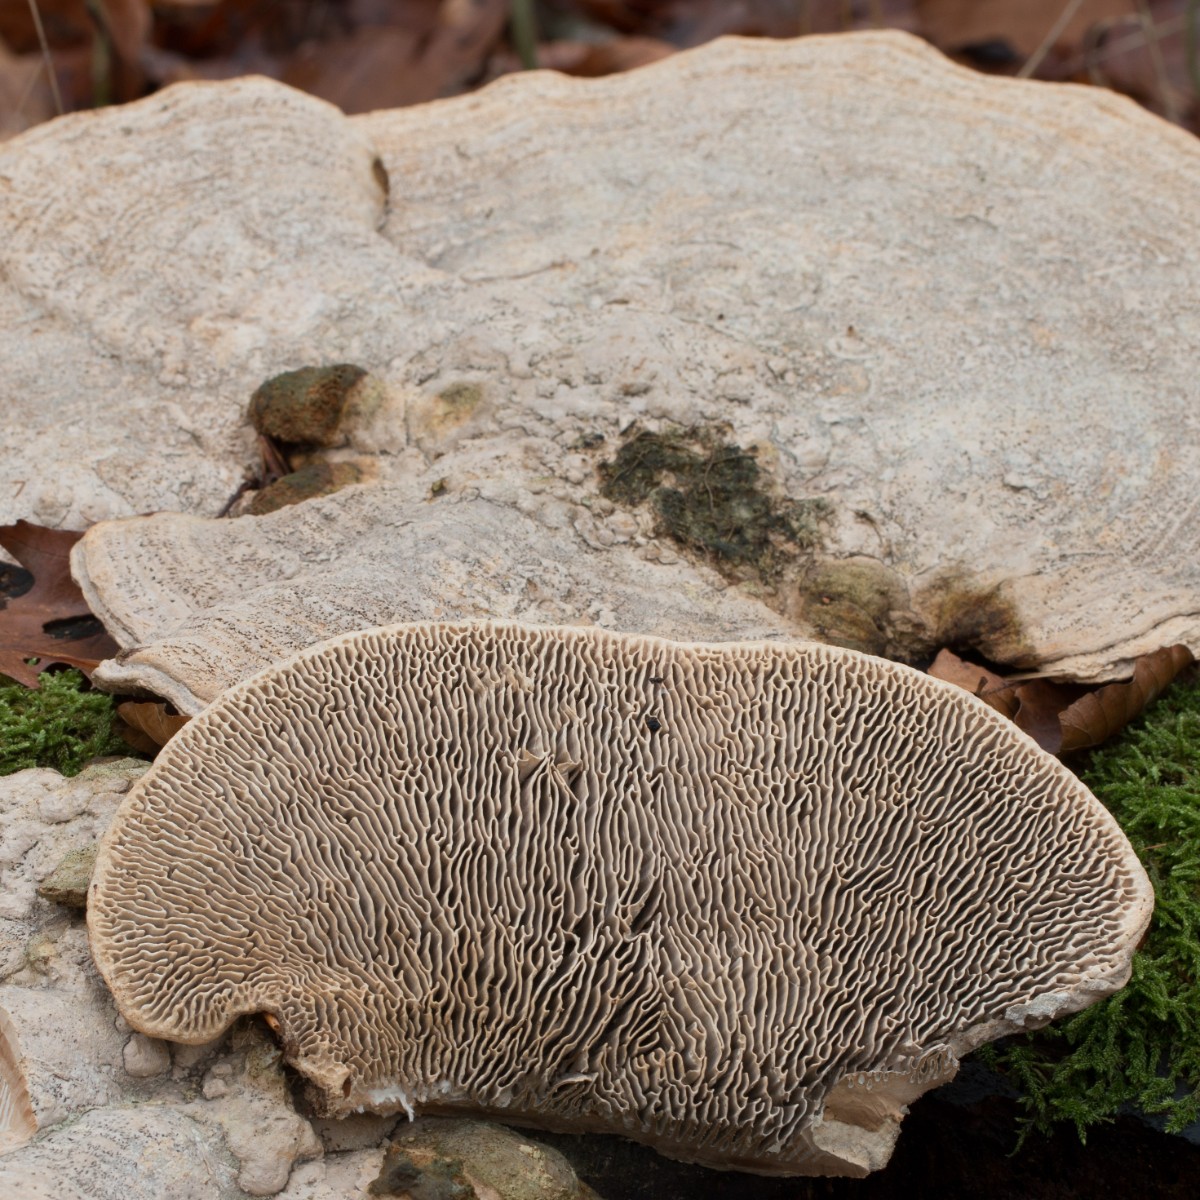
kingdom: Fungi
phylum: Basidiomycota
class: Agaricomycetes
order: Polyporales
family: Fomitopsidaceae
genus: Daedalea
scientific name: Daedalea quercina
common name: ege-labyrintsvamp
